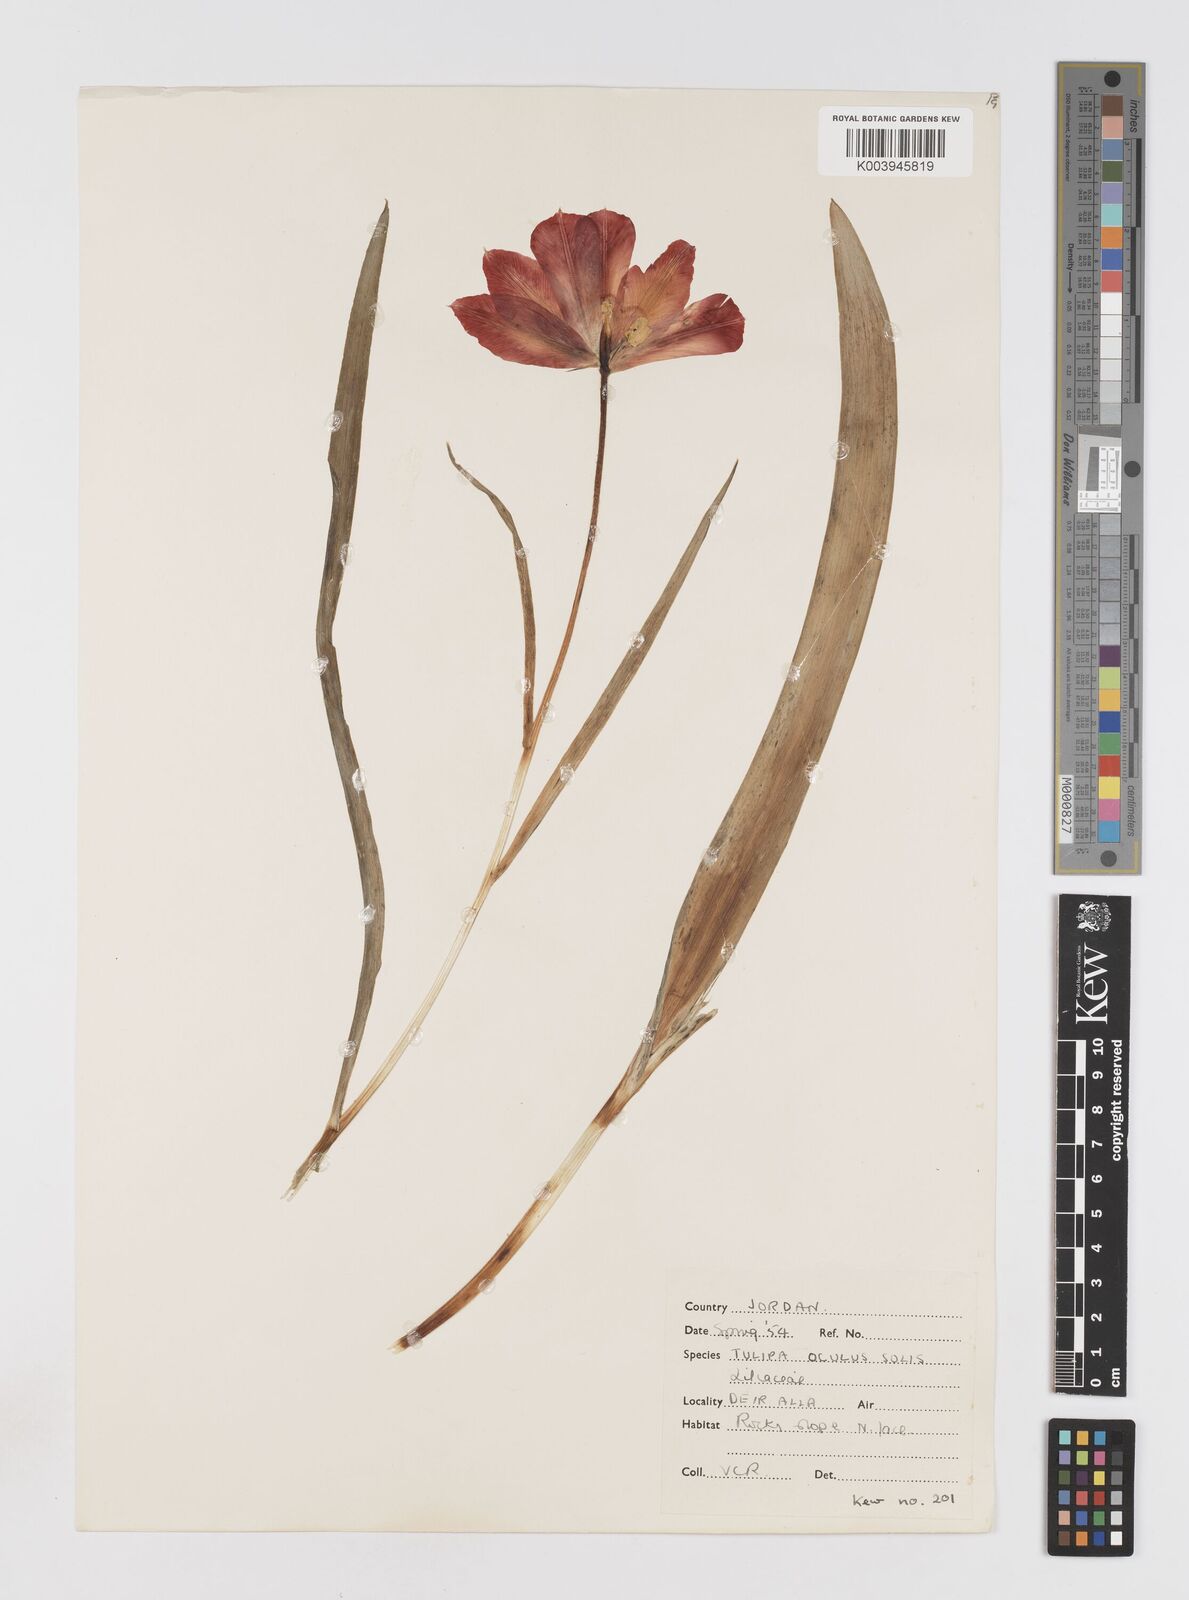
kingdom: Plantae
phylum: Tracheophyta
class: Liliopsida
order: Liliales
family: Liliaceae
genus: Tulipa
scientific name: Tulipa aleppensis
